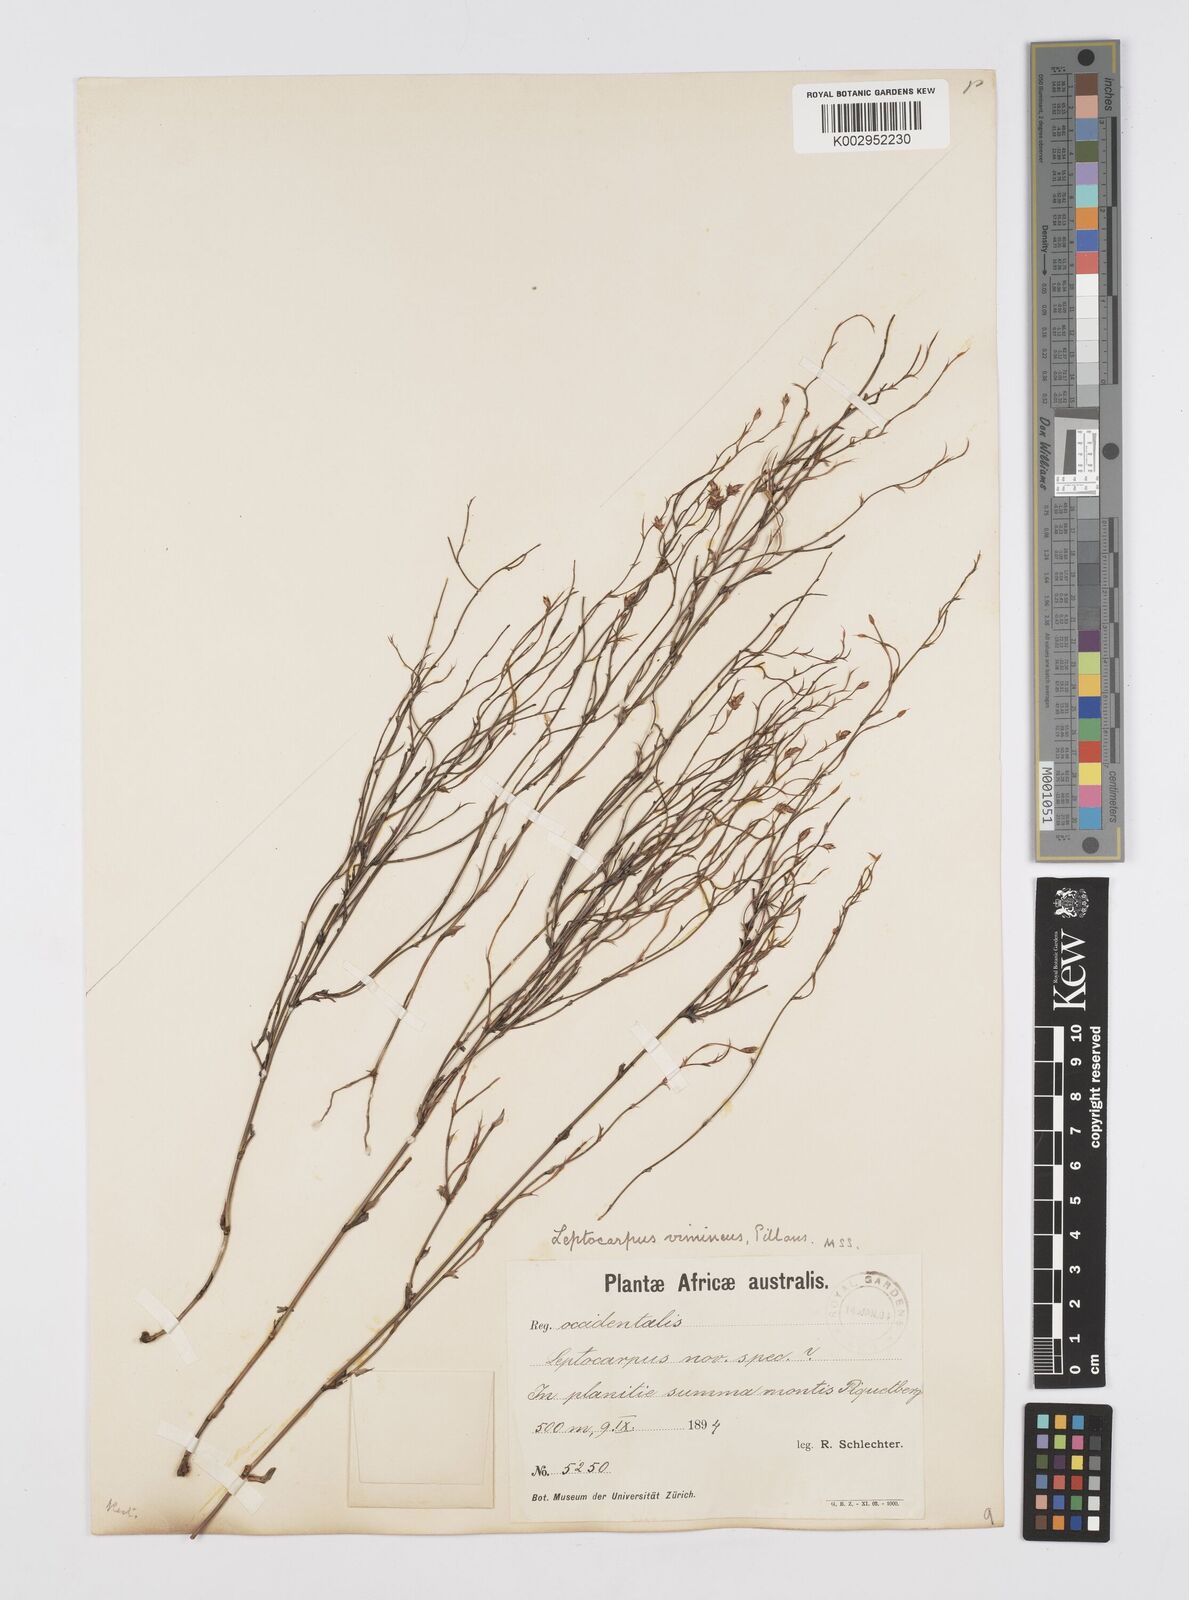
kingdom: Plantae
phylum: Tracheophyta
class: Liliopsida
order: Poales
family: Restionaceae
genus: Restio
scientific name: Restio vimineus
